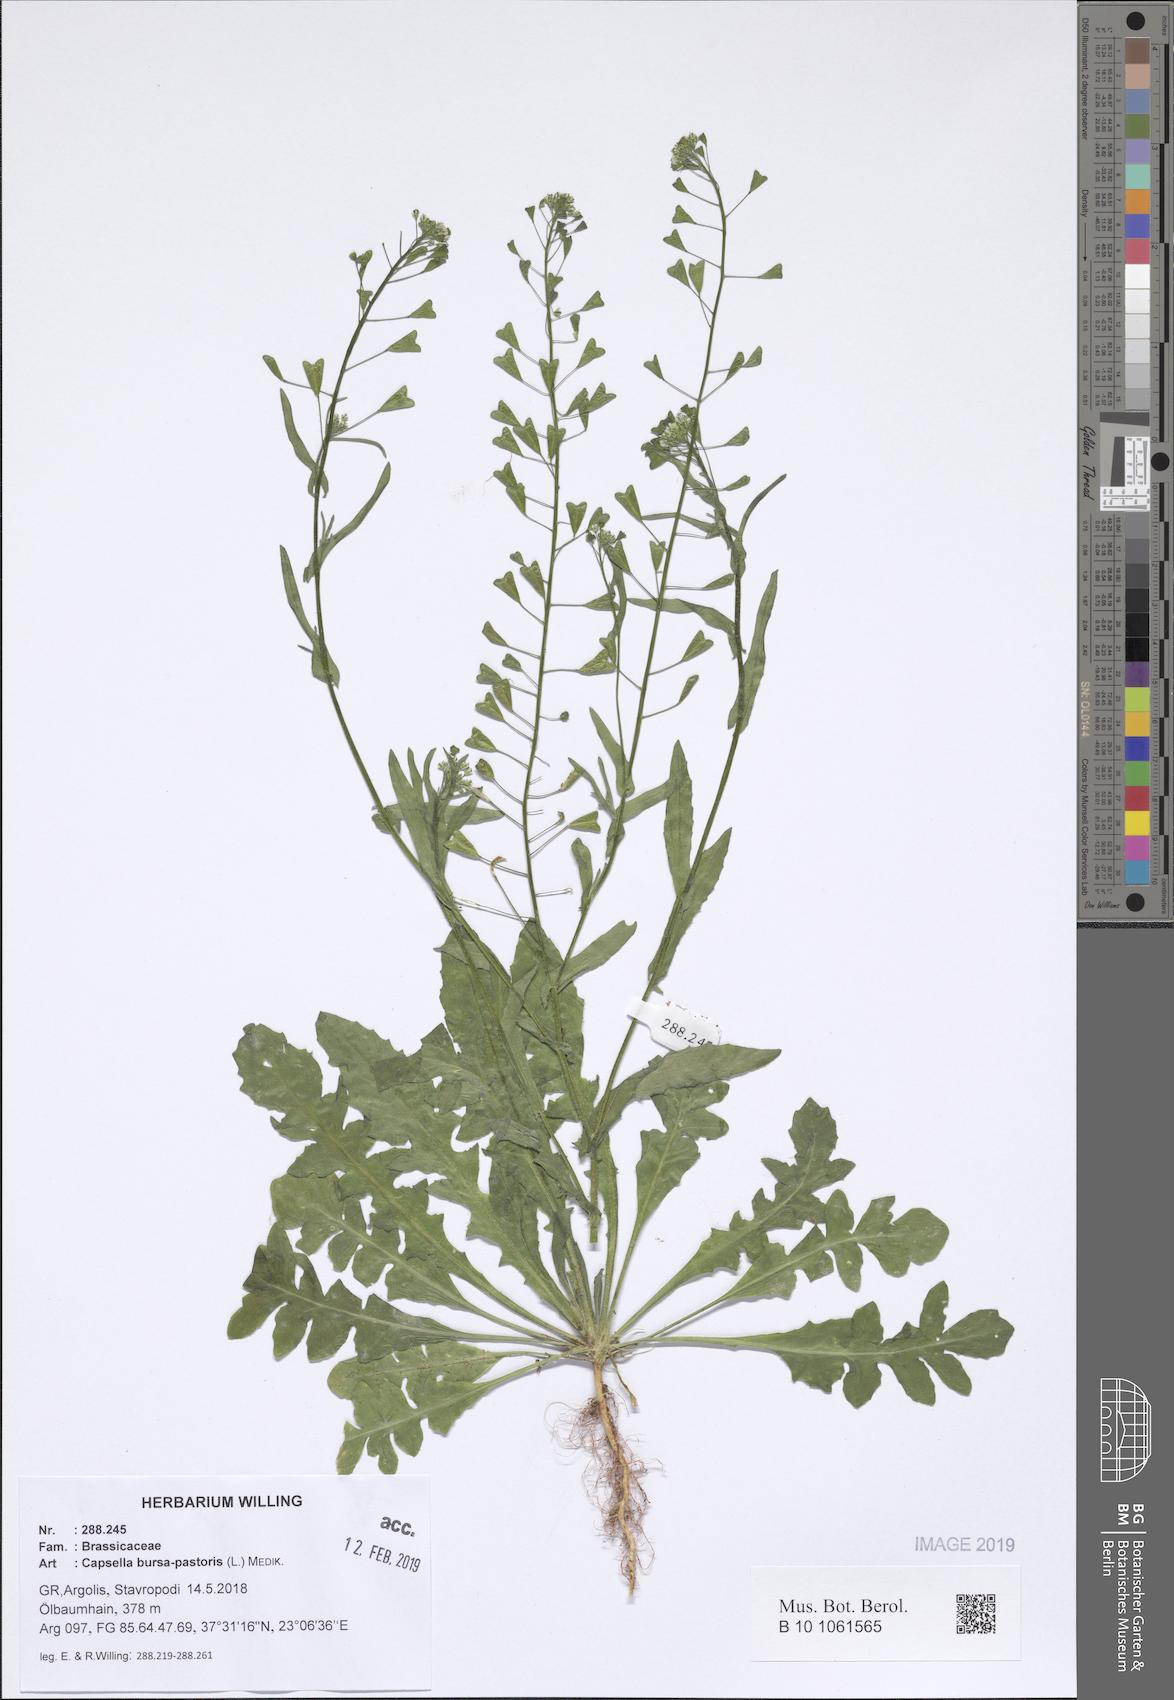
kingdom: Plantae
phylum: Tracheophyta
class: Magnoliopsida
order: Brassicales
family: Brassicaceae
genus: Capsella
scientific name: Capsella bursa-pastoris
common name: Shepherd's purse
